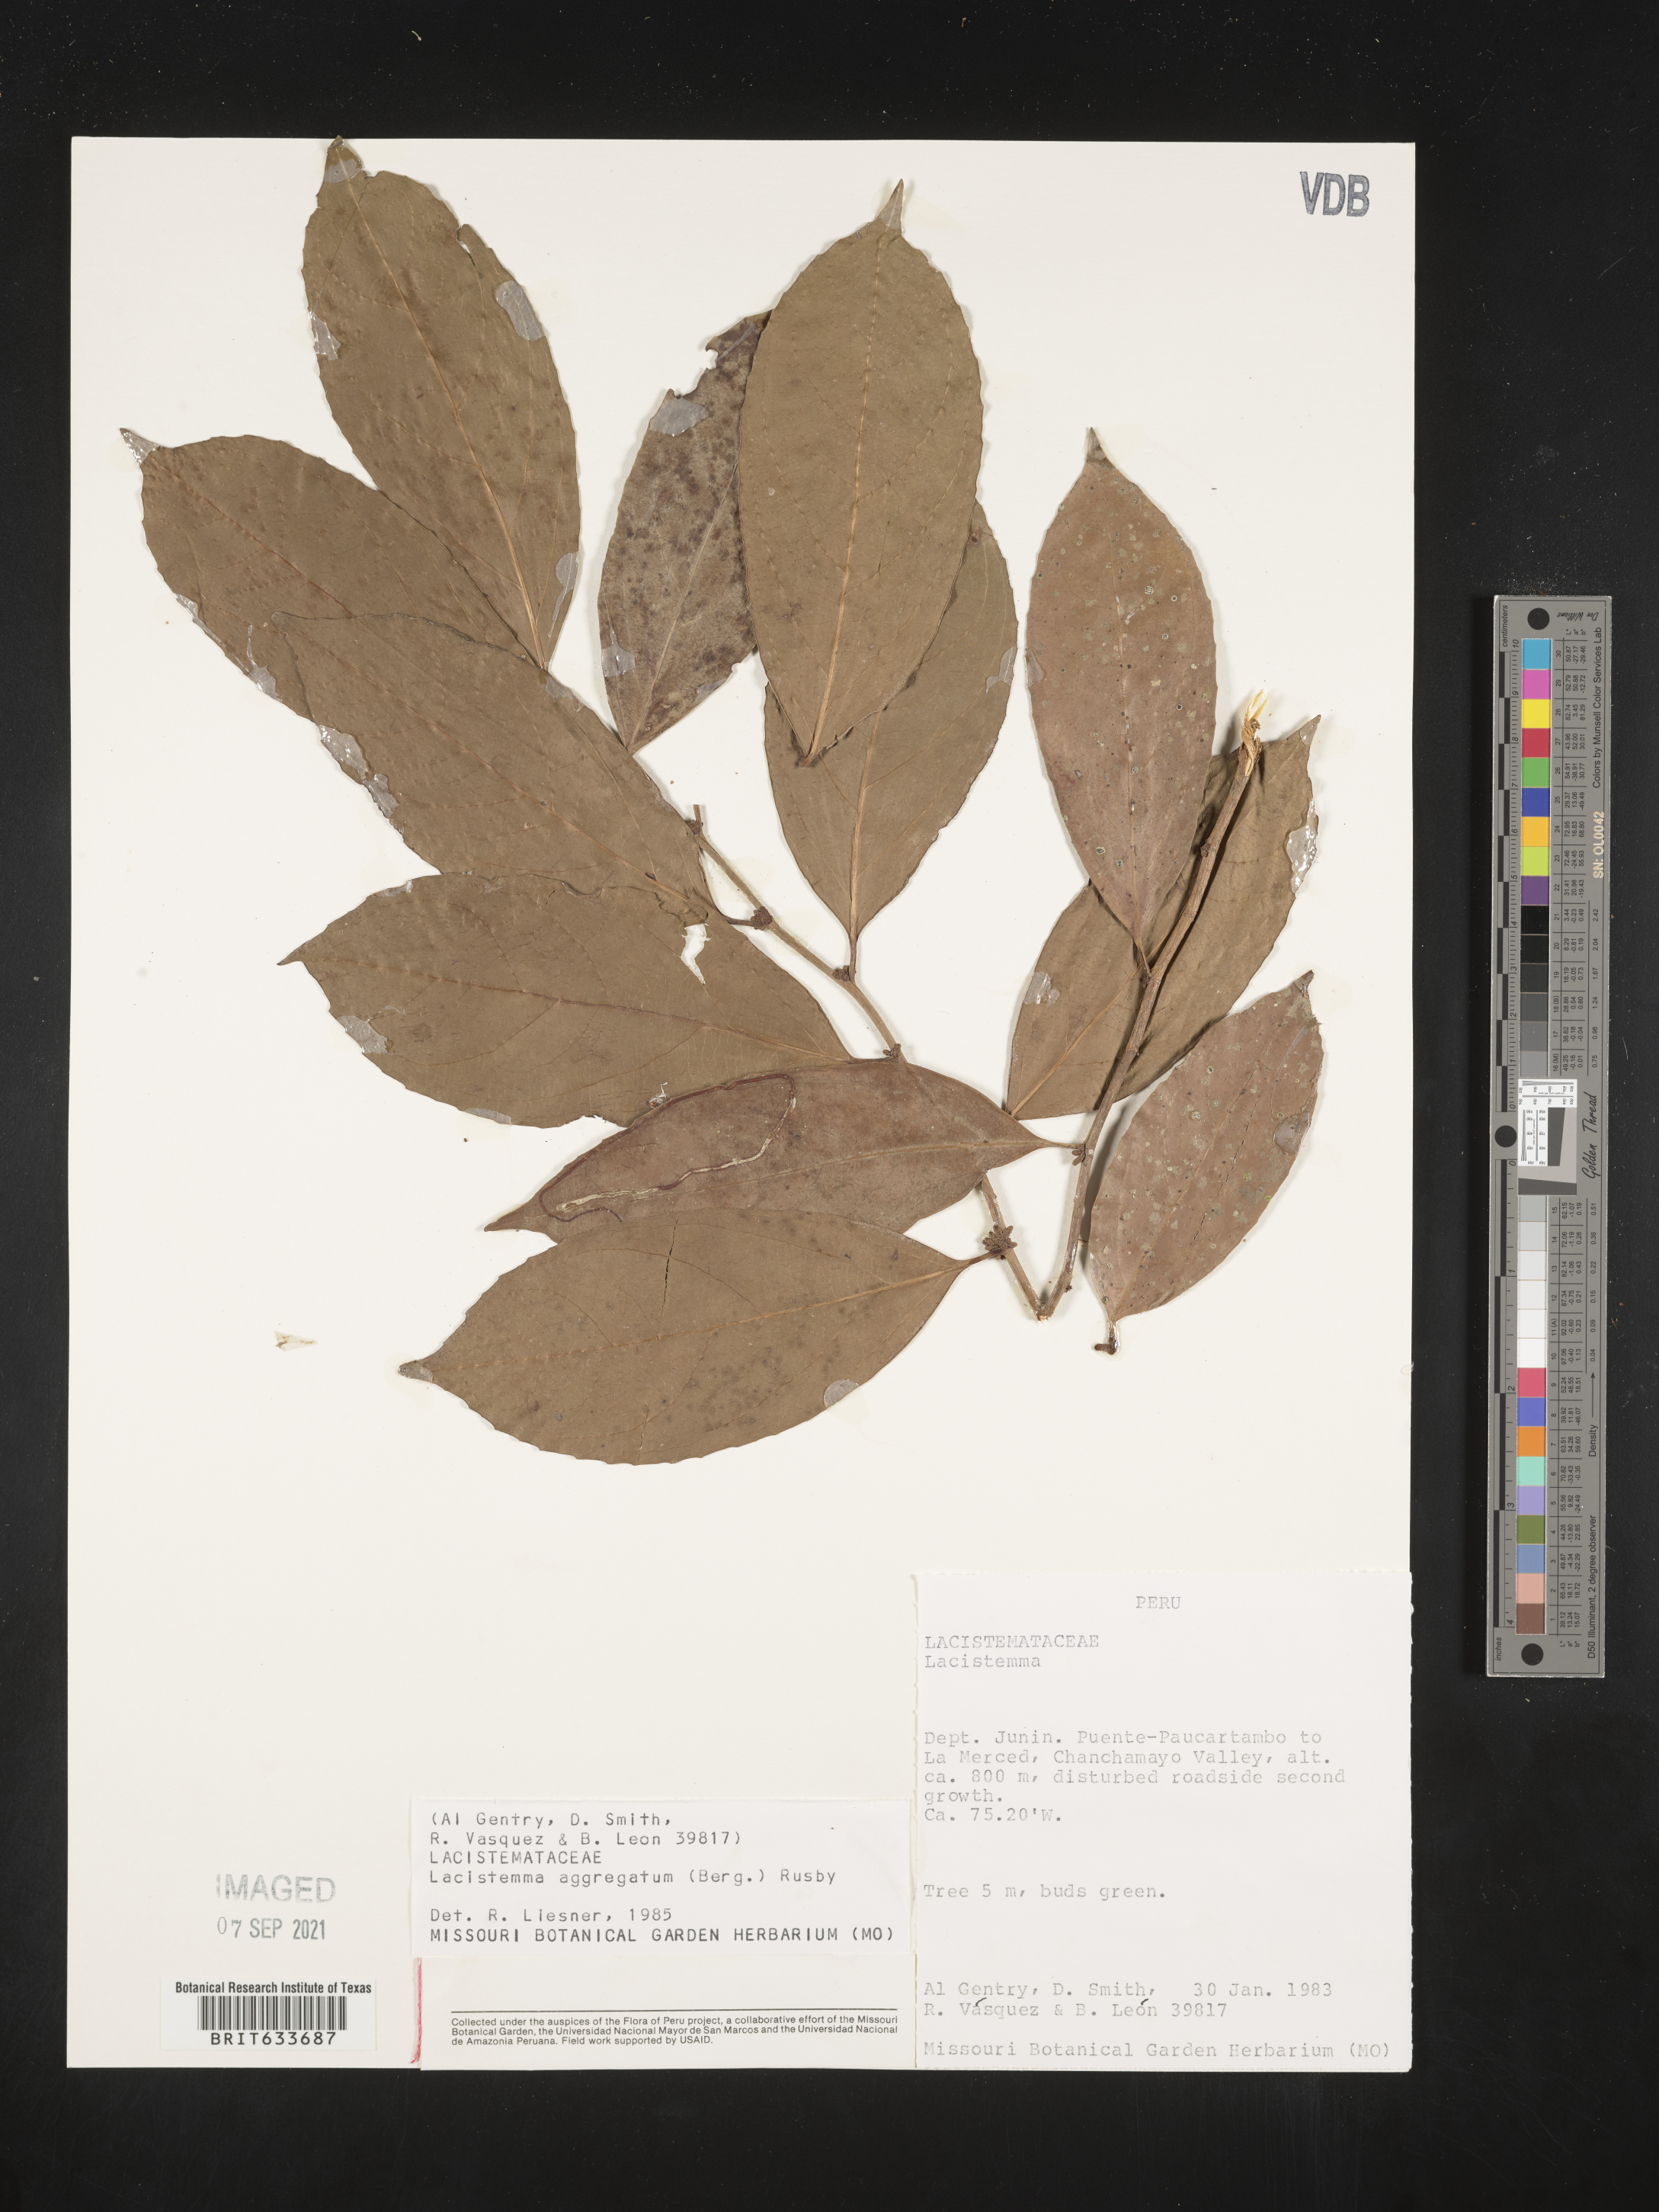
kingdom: Plantae
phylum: Tracheophyta
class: Magnoliopsida
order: Malpighiales
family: Lacistemataceae
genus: Lacistema
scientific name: Lacistema
